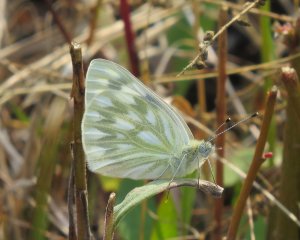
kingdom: Animalia
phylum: Arthropoda
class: Insecta
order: Lepidoptera
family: Pieridae
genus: Pontia
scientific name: Pontia protodice
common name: Checkered White
